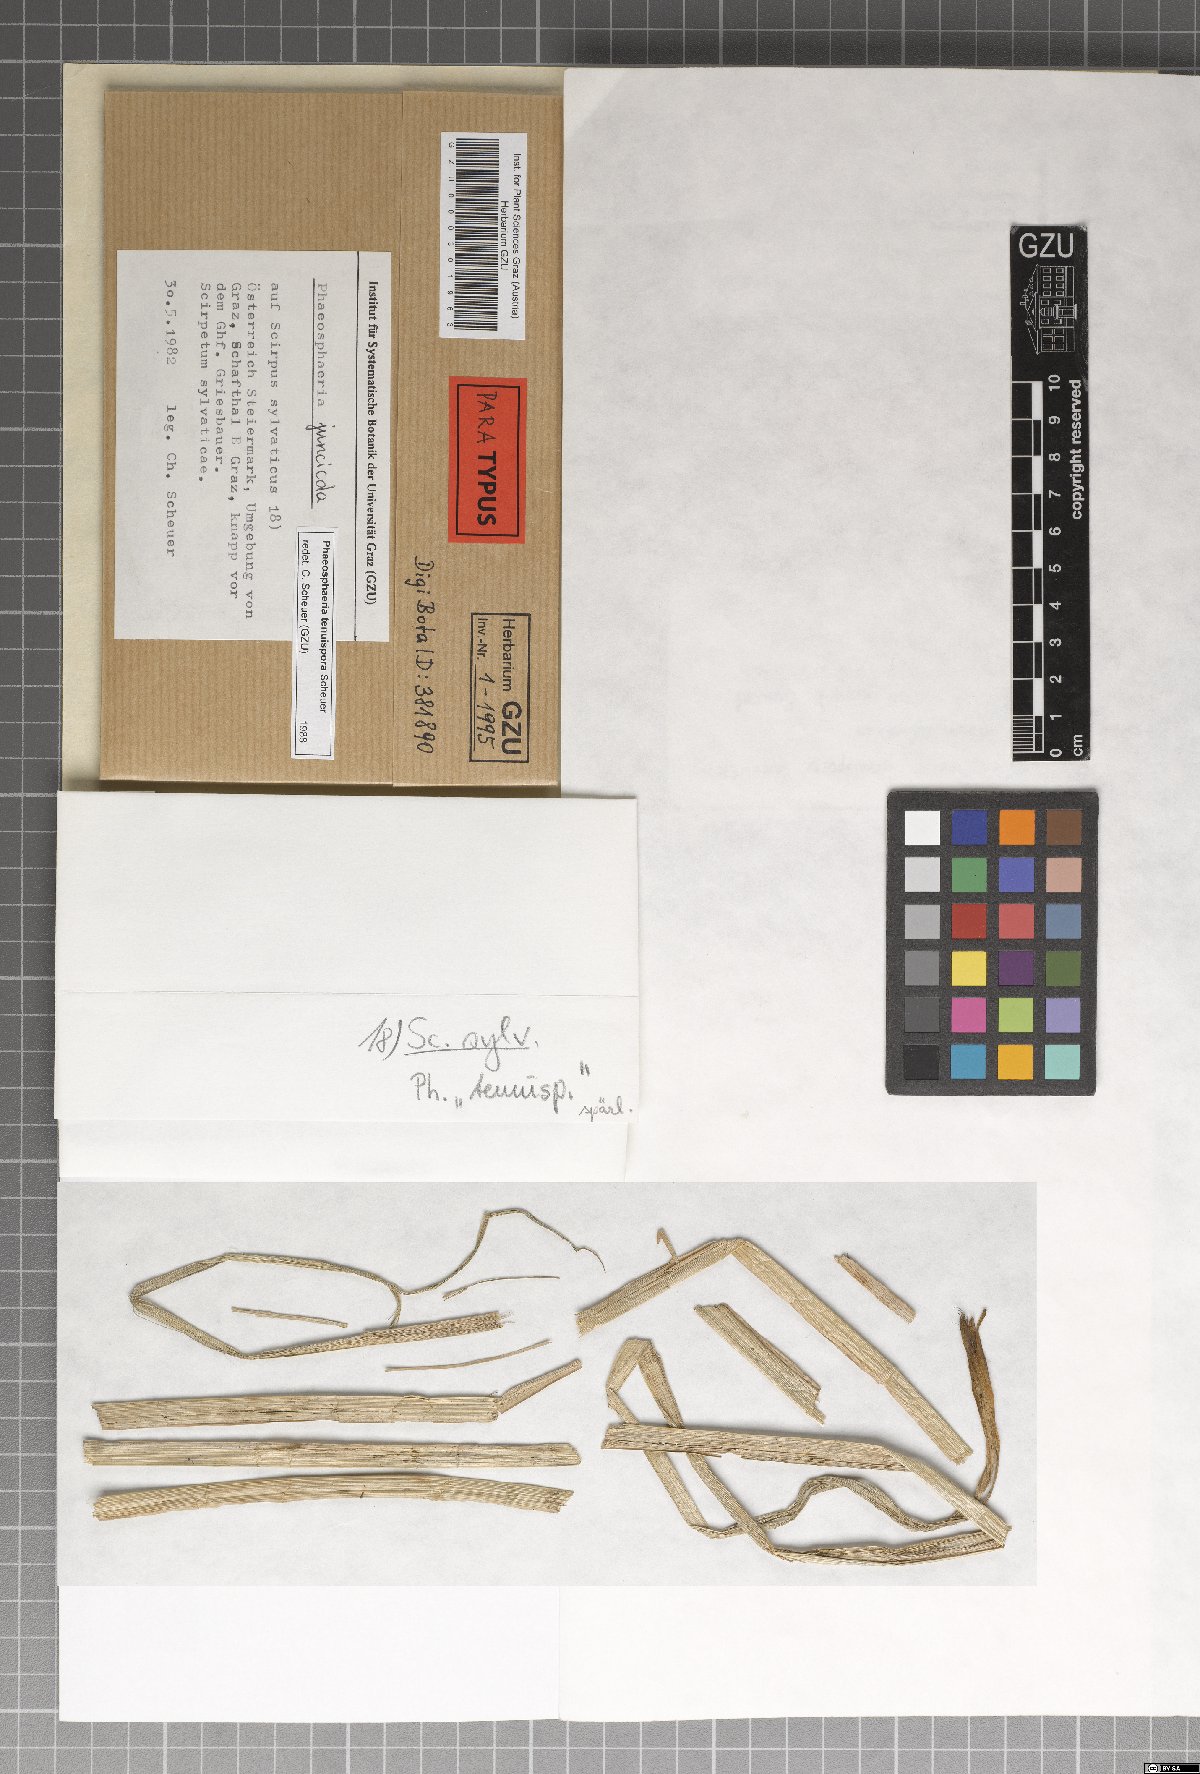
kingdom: Fungi
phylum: Ascomycota
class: Dothideomycetes
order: Pleosporales
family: Phaeosphaeriaceae
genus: Phaeosphaeria
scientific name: Phaeosphaeria tenuispora
